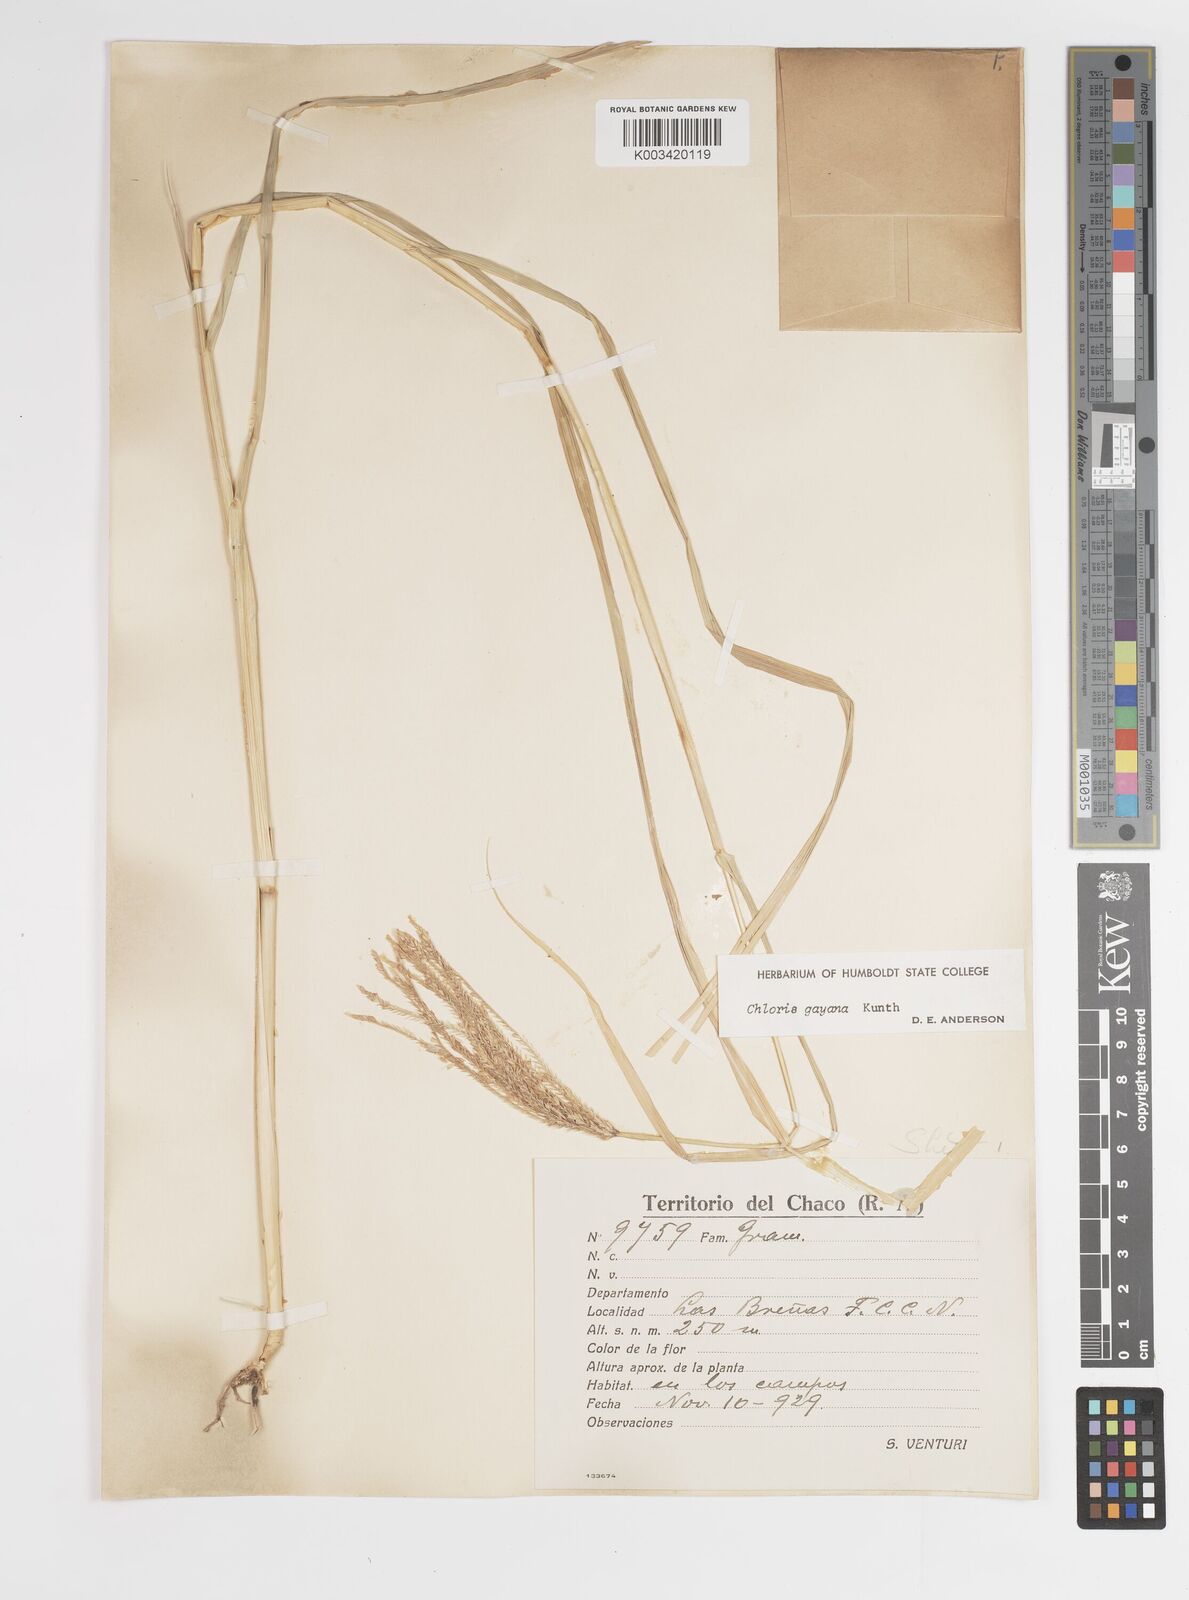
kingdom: Plantae
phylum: Tracheophyta
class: Liliopsida
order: Poales
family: Poaceae
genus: Chloris
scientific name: Chloris gayana
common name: Rhodes grass
